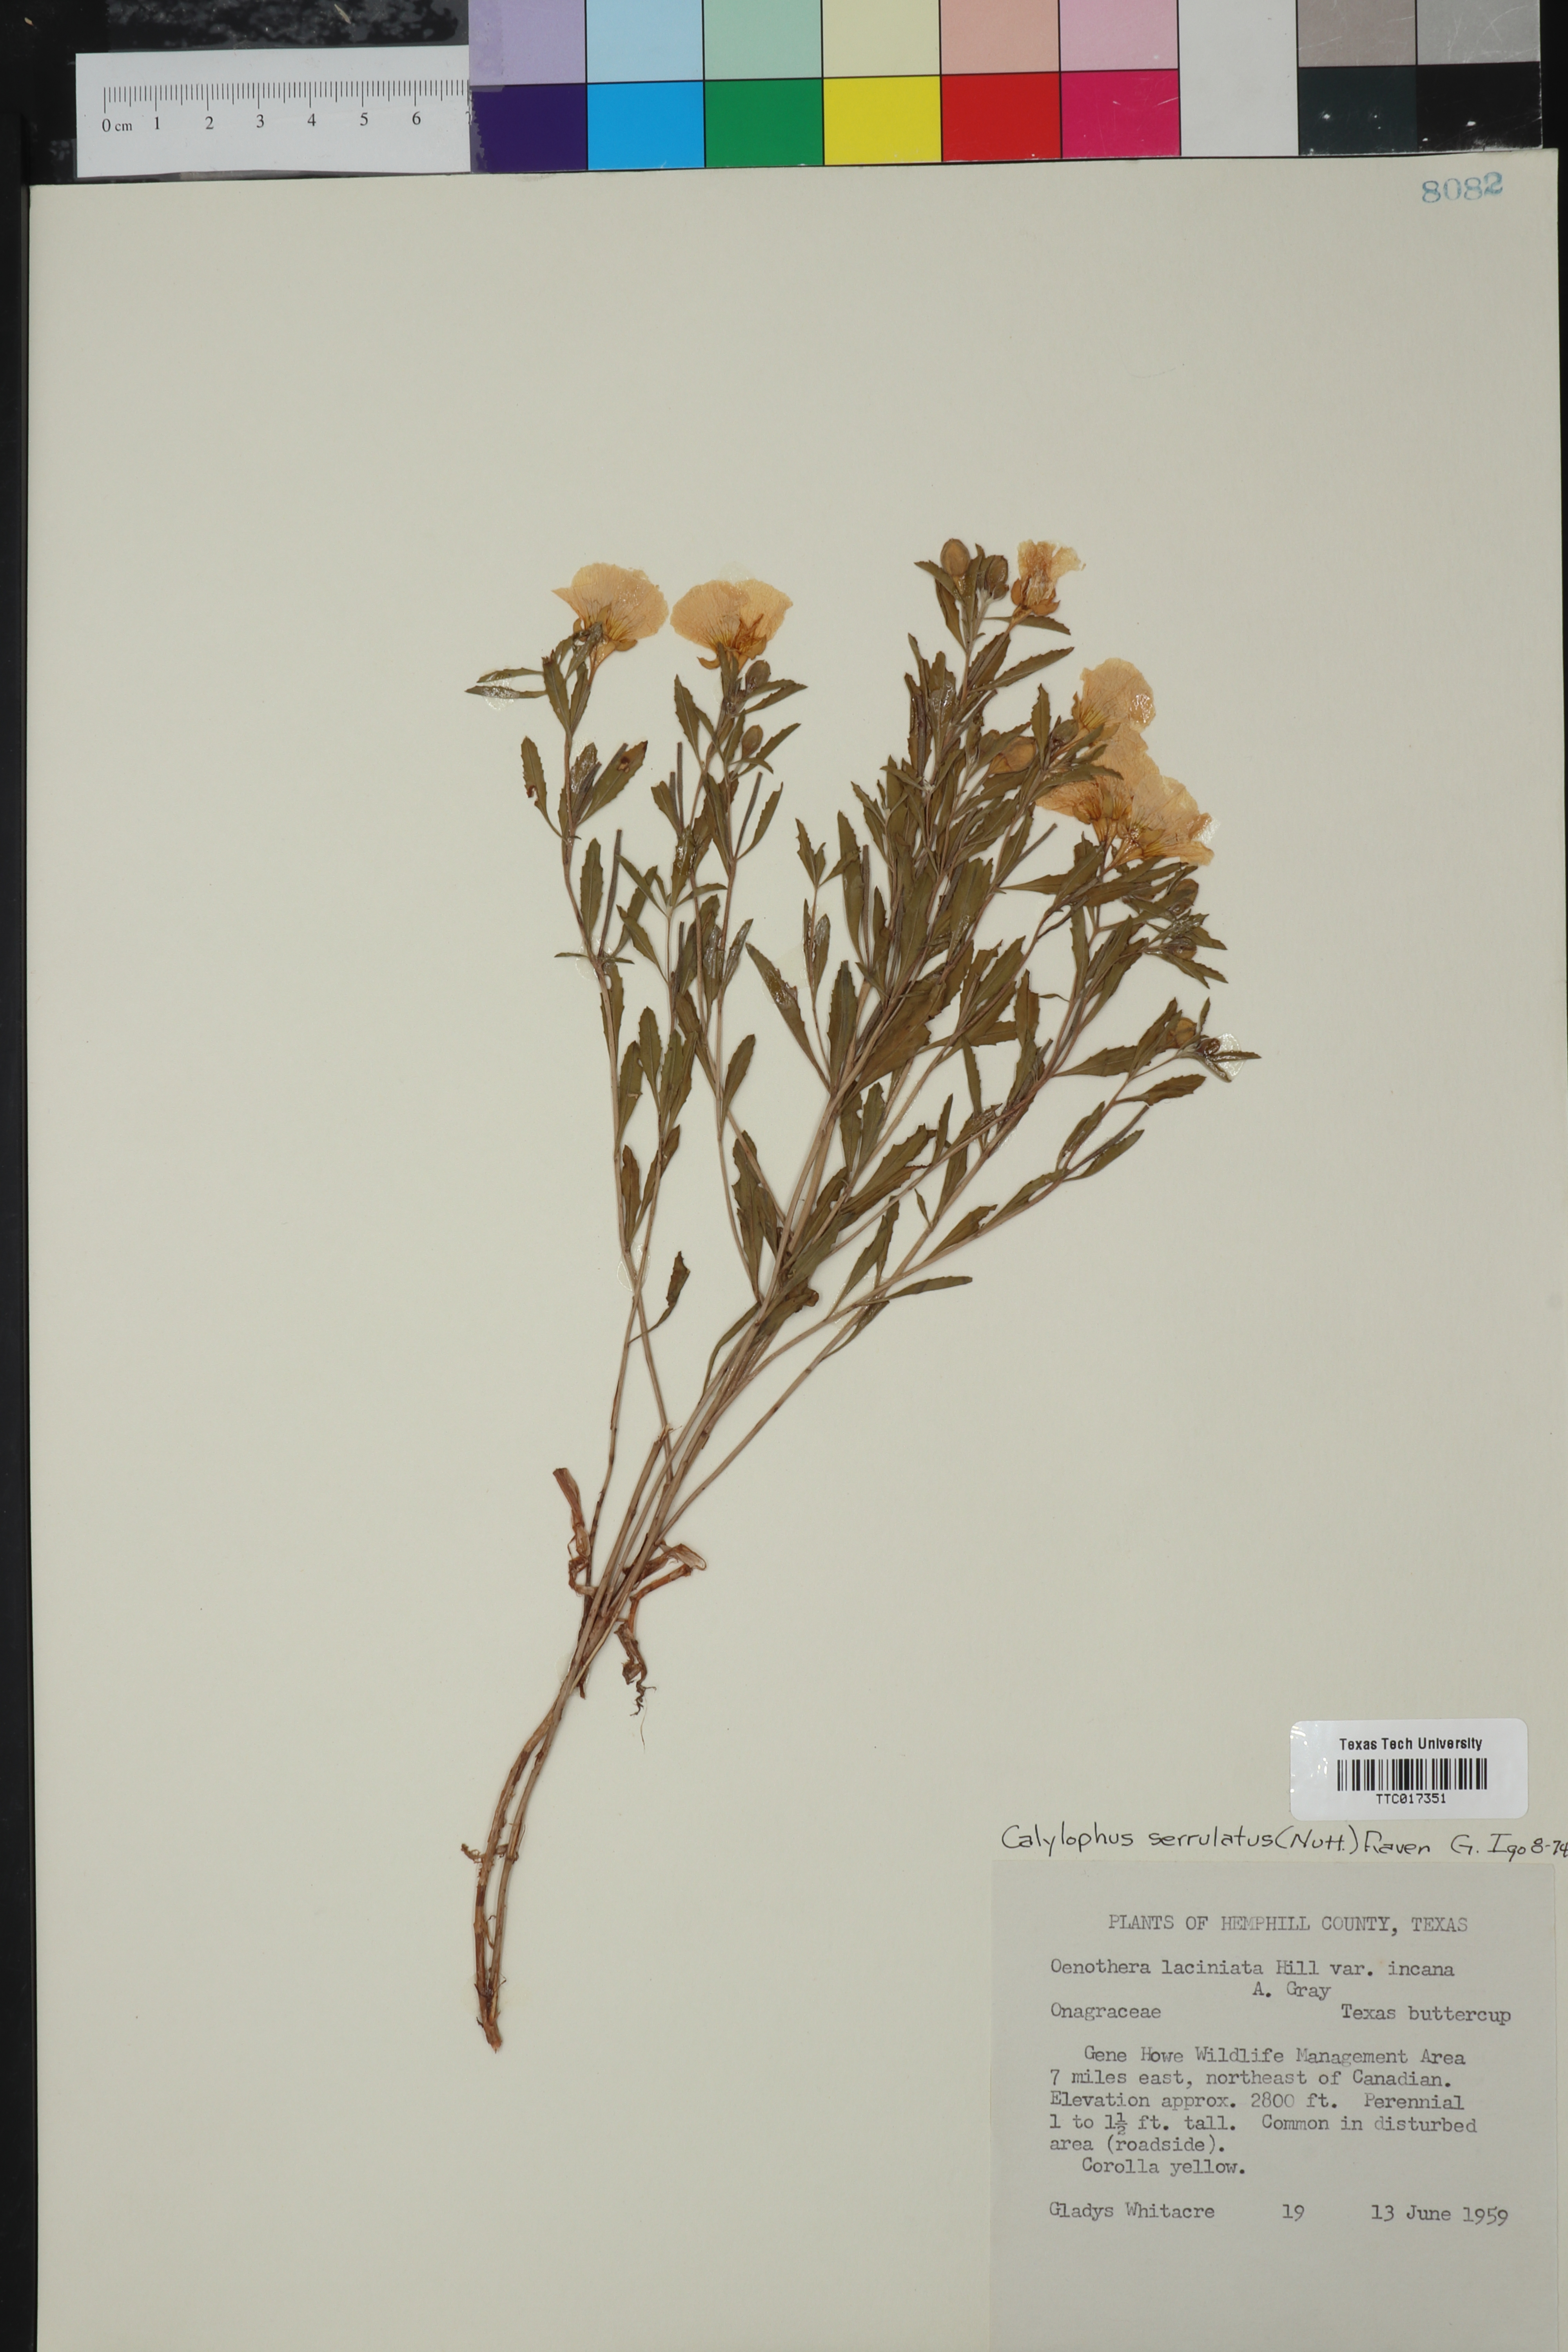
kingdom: Plantae
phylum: Tracheophyta
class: Magnoliopsida
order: Myrtales
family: Onagraceae
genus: Oenothera
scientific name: Oenothera serrulata
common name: Half-shrub calylophus
